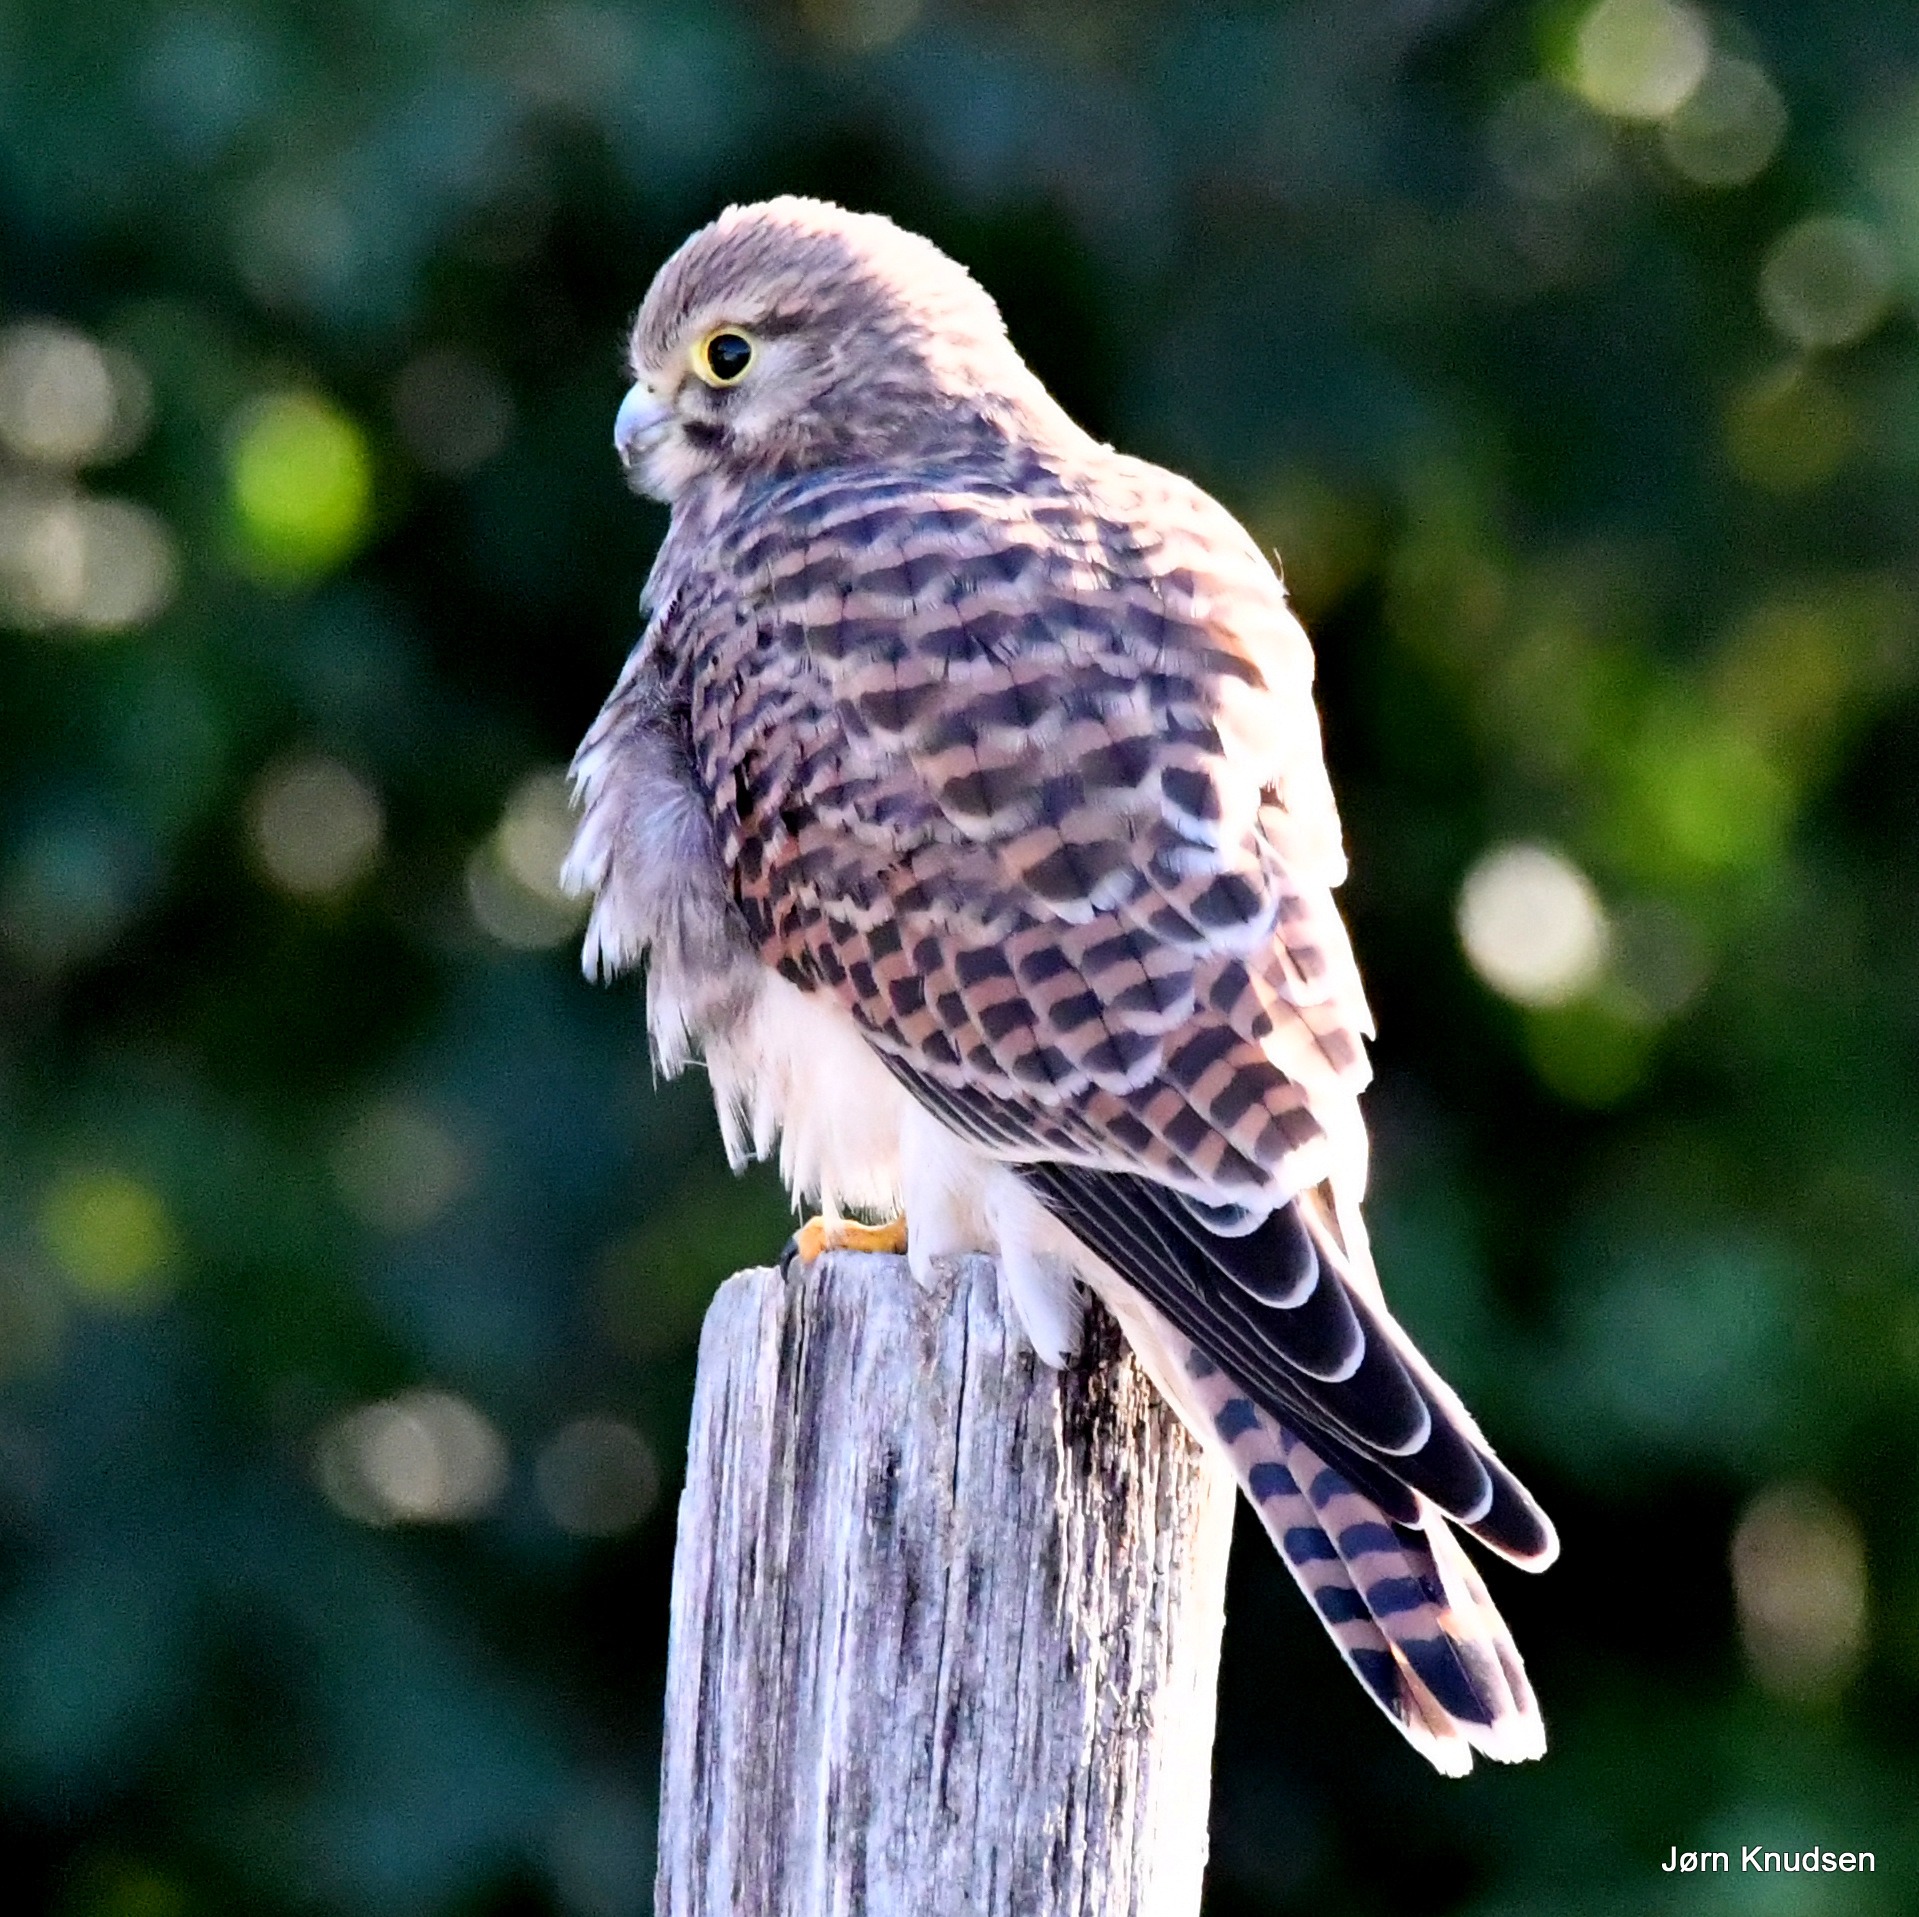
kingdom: Animalia
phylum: Chordata
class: Aves
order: Falconiformes
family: Falconidae
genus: Falco
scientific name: Falco tinnunculus
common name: Tårnfalk
